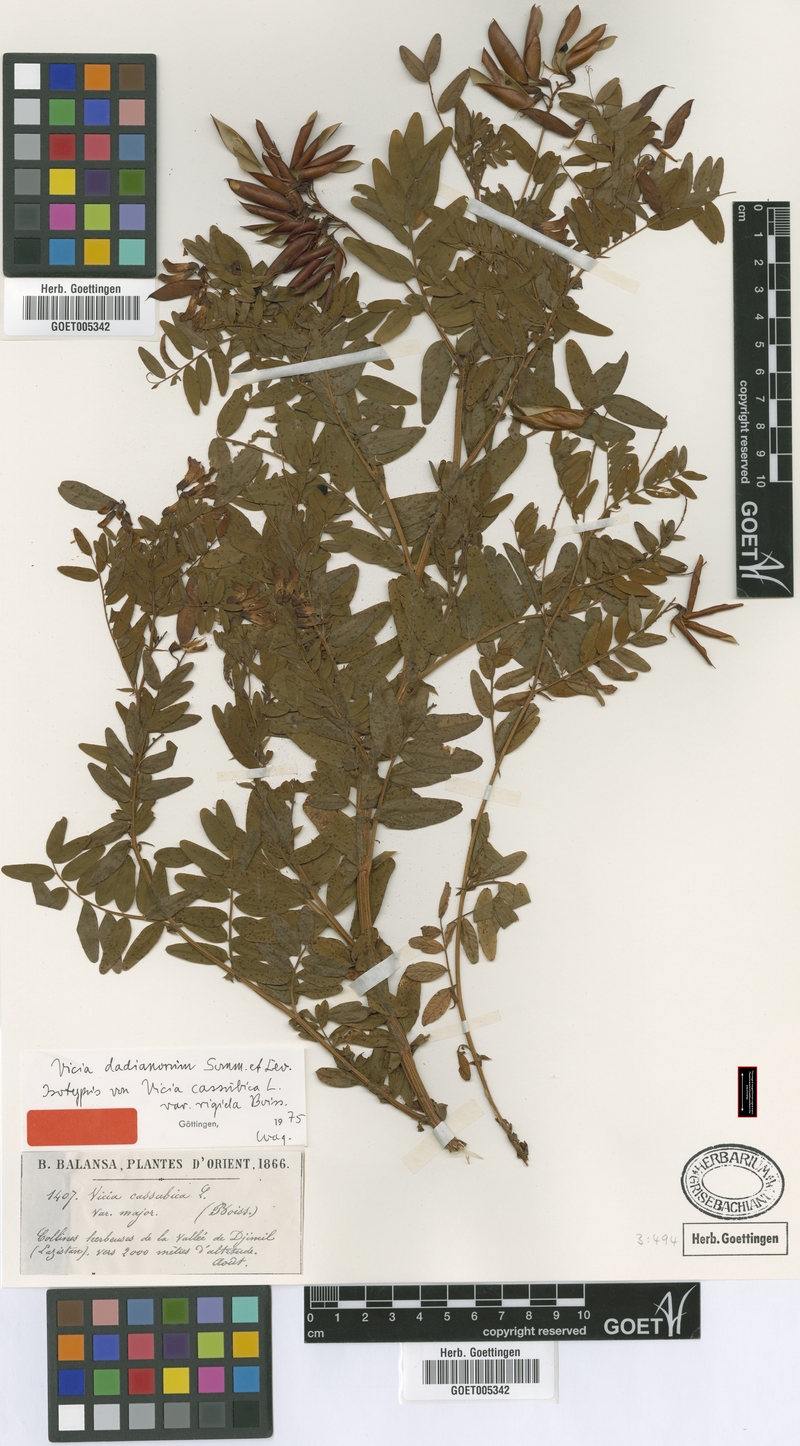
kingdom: Plantae
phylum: Tracheophyta
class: Magnoliopsida
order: Fabales
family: Fabaceae
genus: Vicia
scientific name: Vicia dadianorum
